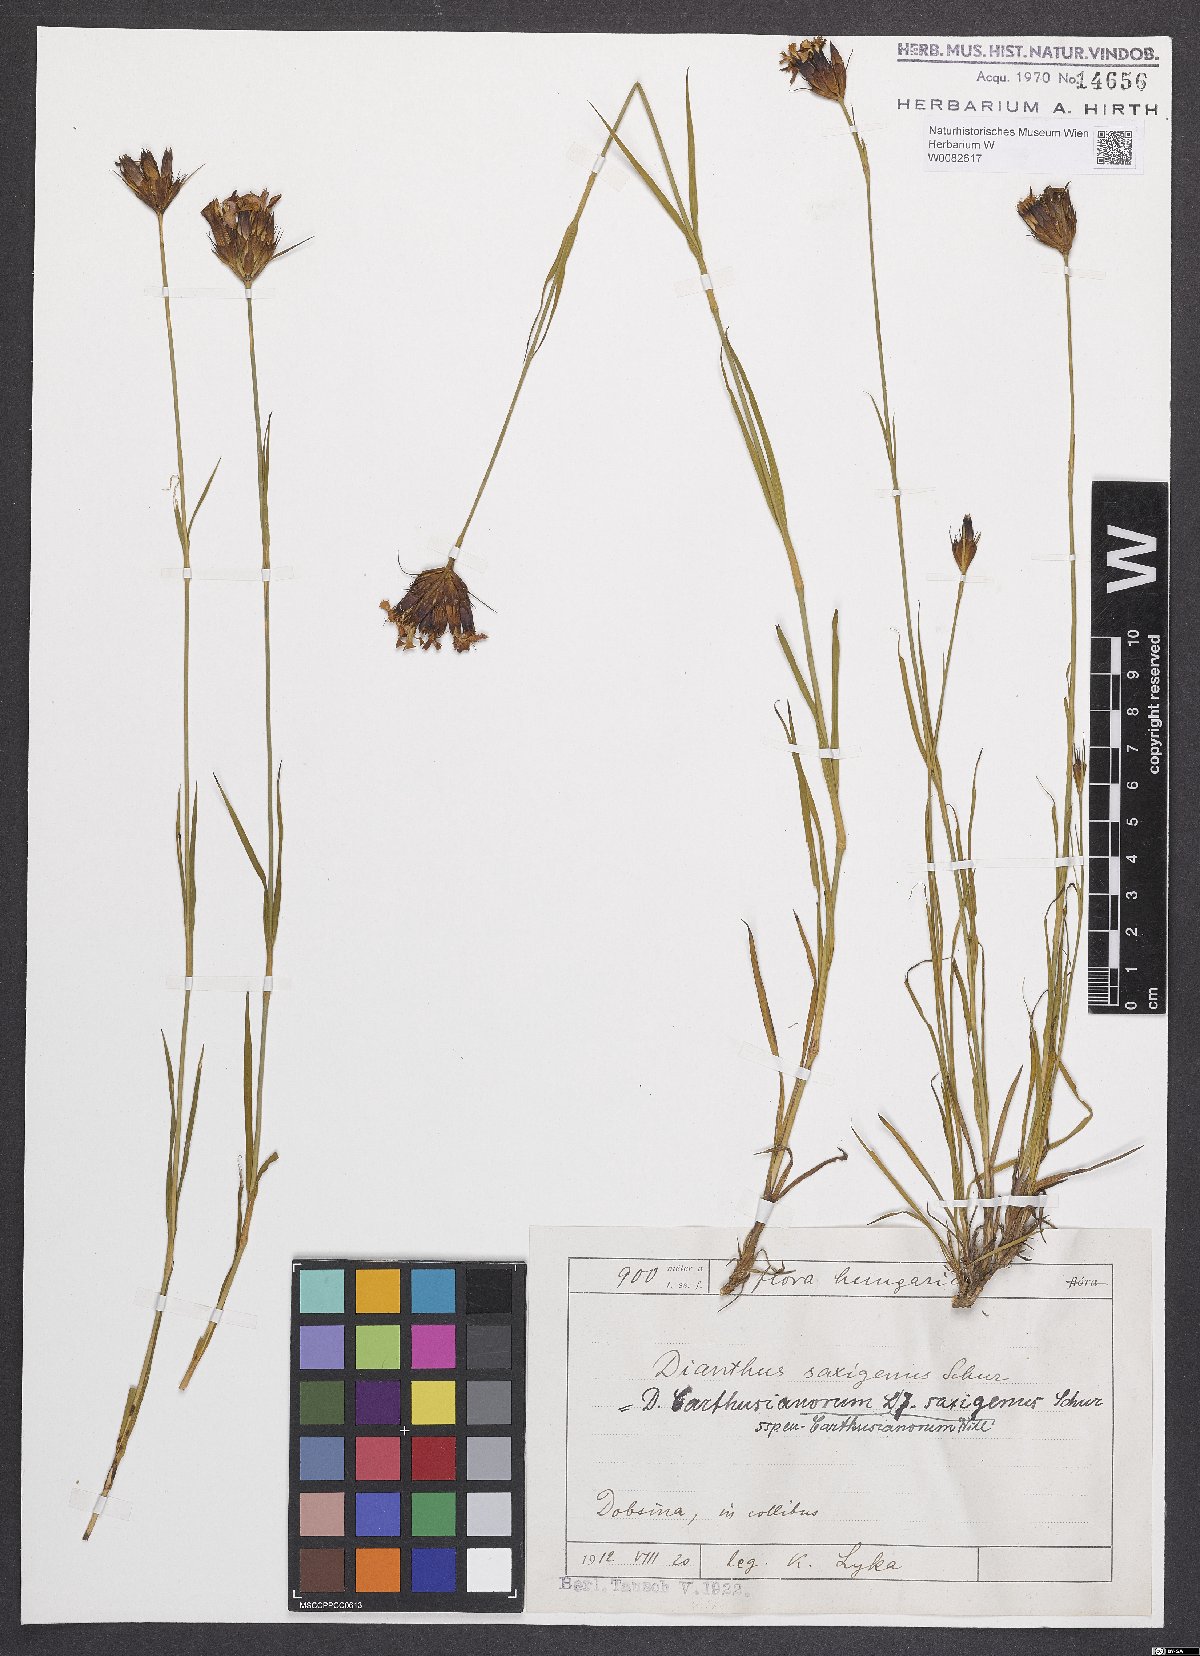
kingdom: Plantae
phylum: Tracheophyta
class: Magnoliopsida
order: Caryophyllales
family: Caryophyllaceae
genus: Dianthus
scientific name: Dianthus carthusianorum
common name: Carthusian pink
